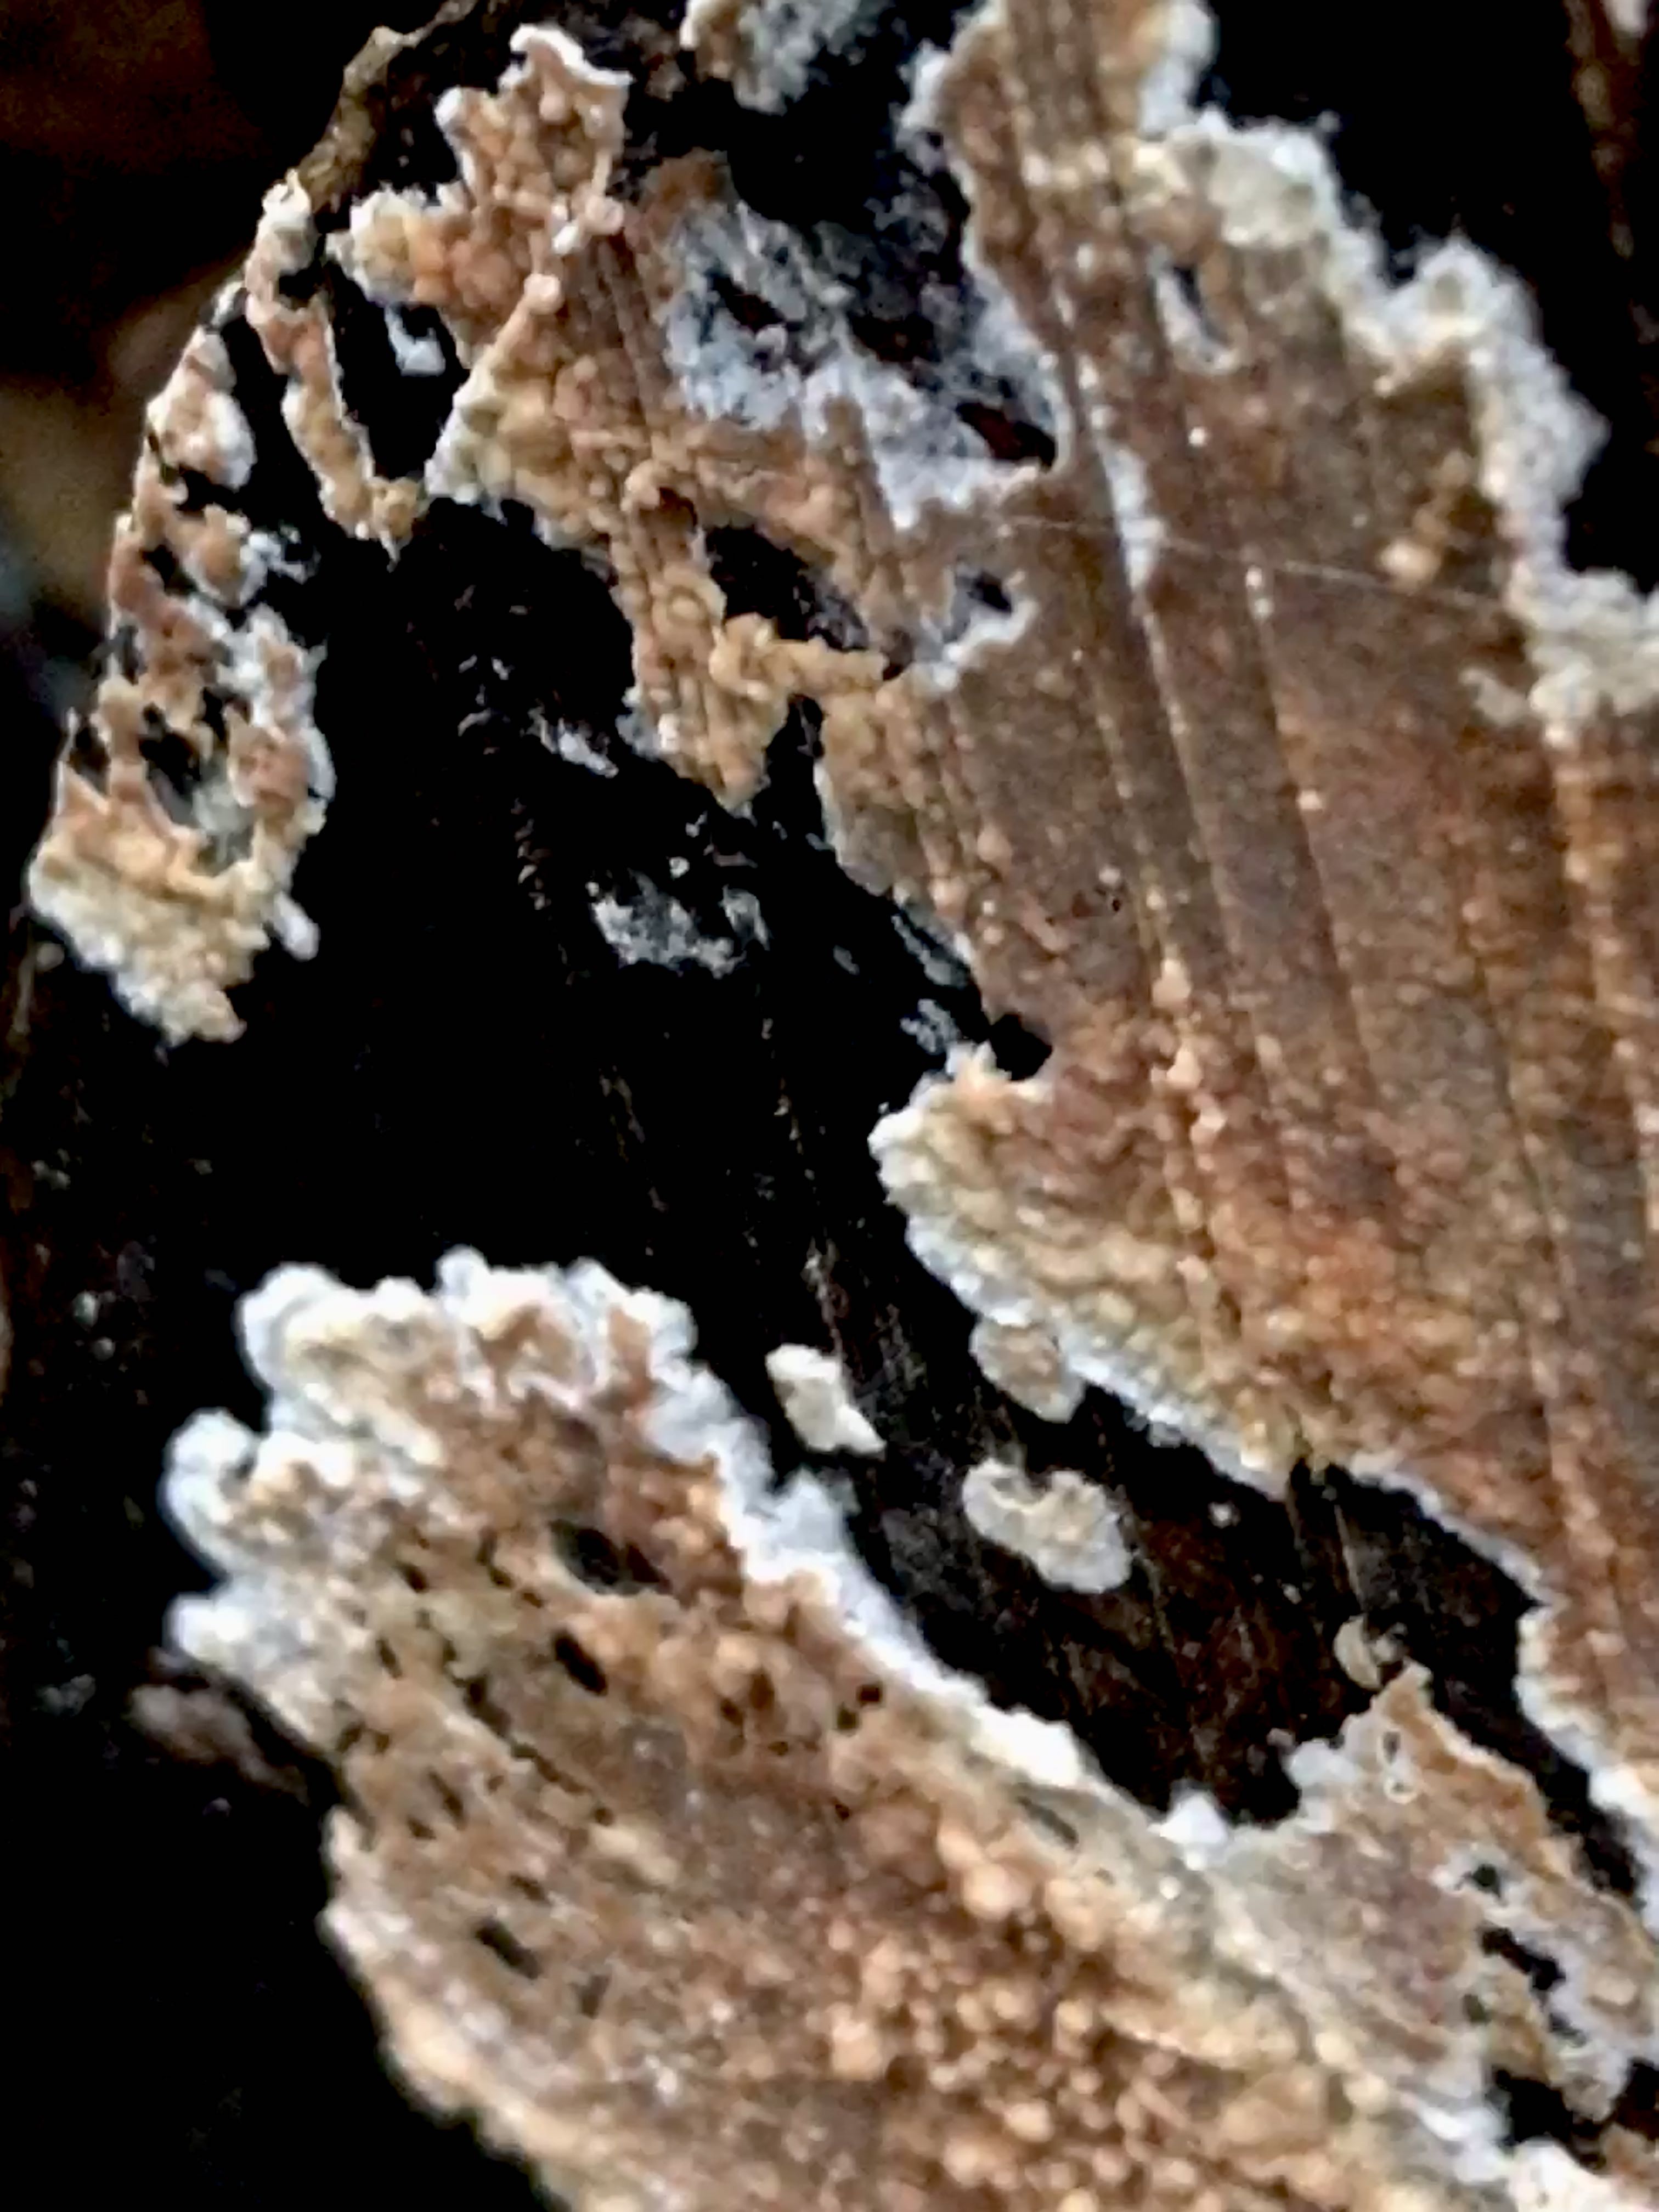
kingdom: Fungi
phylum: Basidiomycota
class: Agaricomycetes
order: Agaricales
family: Physalacriaceae
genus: Cylindrobasidium
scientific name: Cylindrobasidium evolvens
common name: sprækkehinde
